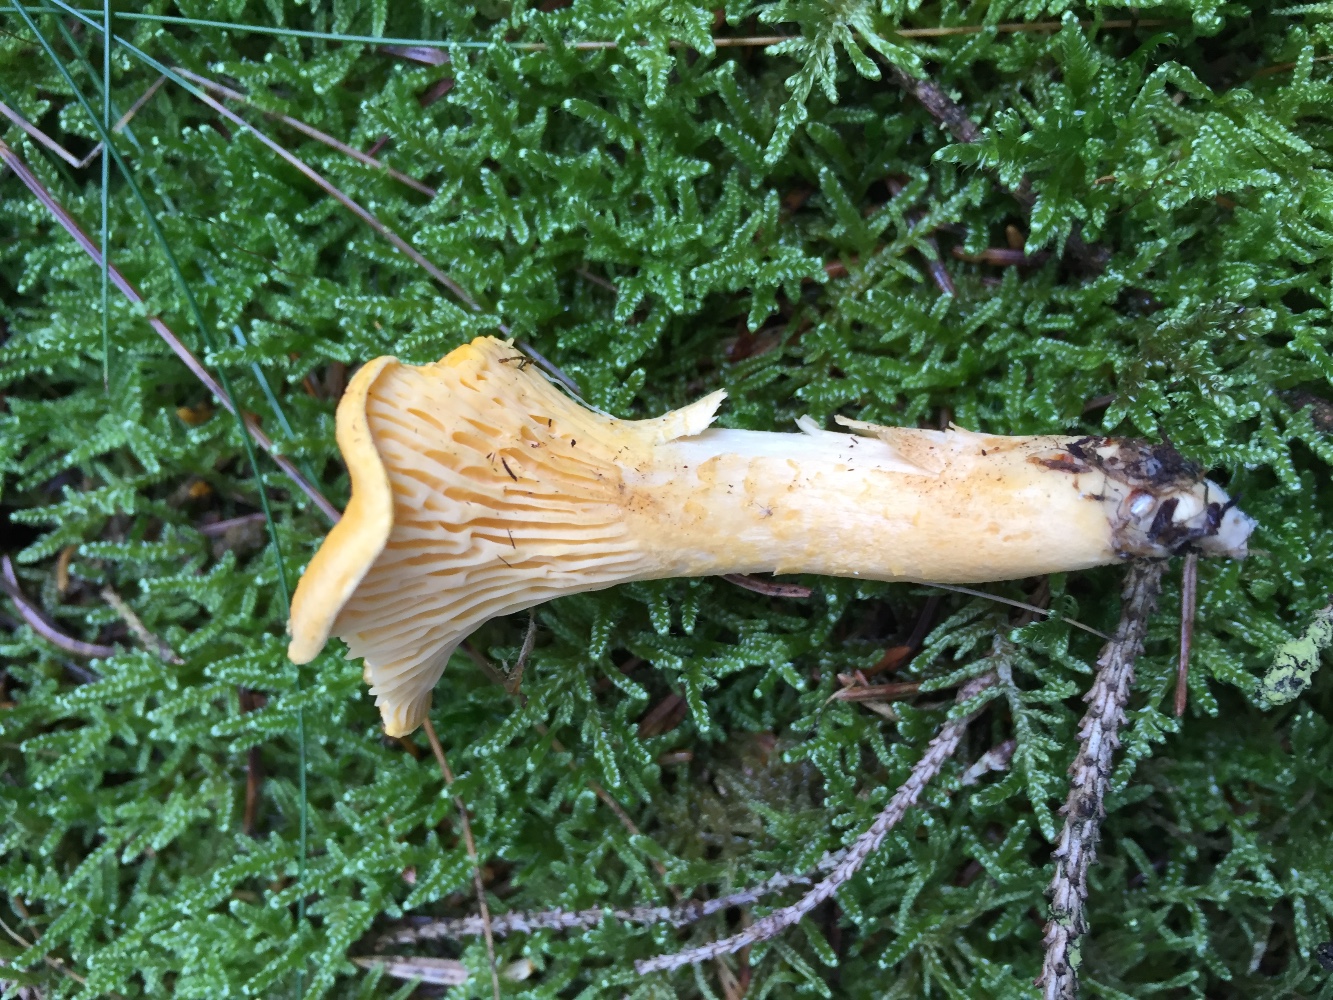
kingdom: Fungi
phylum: Basidiomycota
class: Agaricomycetes
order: Cantharellales
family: Hydnaceae
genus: Cantharellus
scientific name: Cantharellus cibarius
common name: almindelig kantarel
